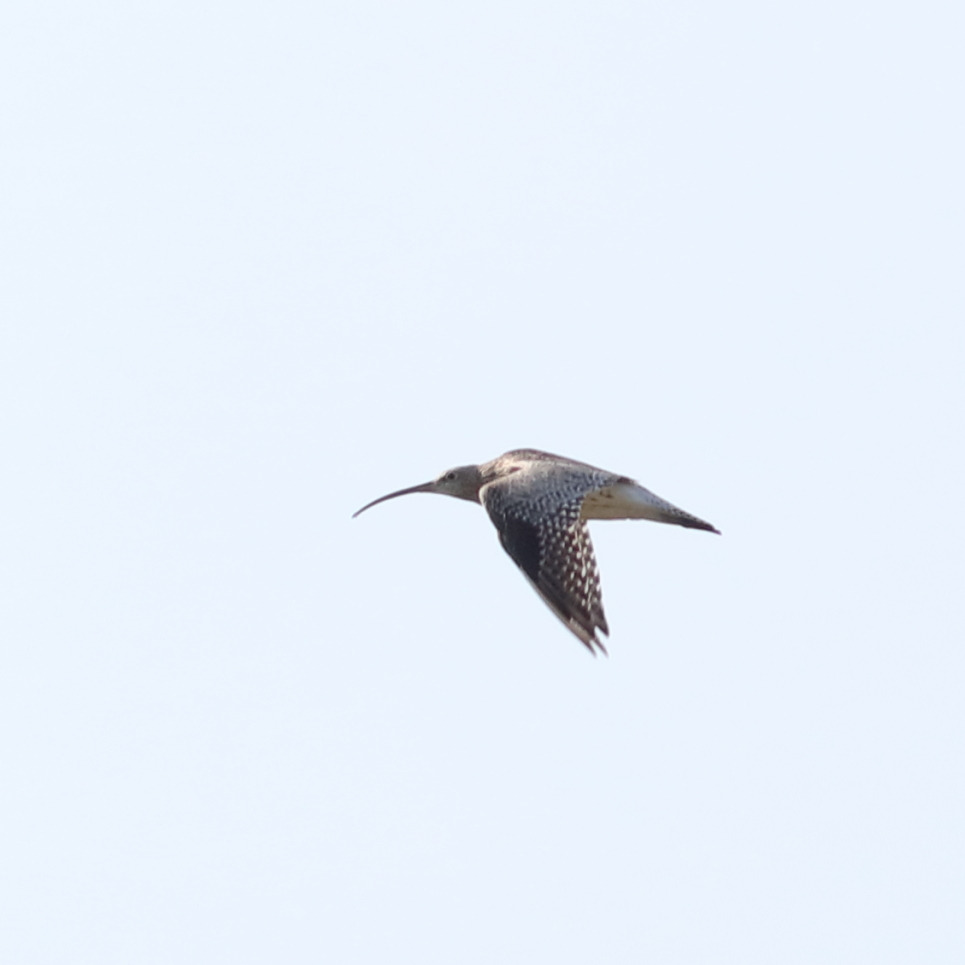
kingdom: Animalia
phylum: Chordata
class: Aves
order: Charadriiformes
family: Scolopacidae
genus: Numenius
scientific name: Numenius arquata
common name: Storspove
